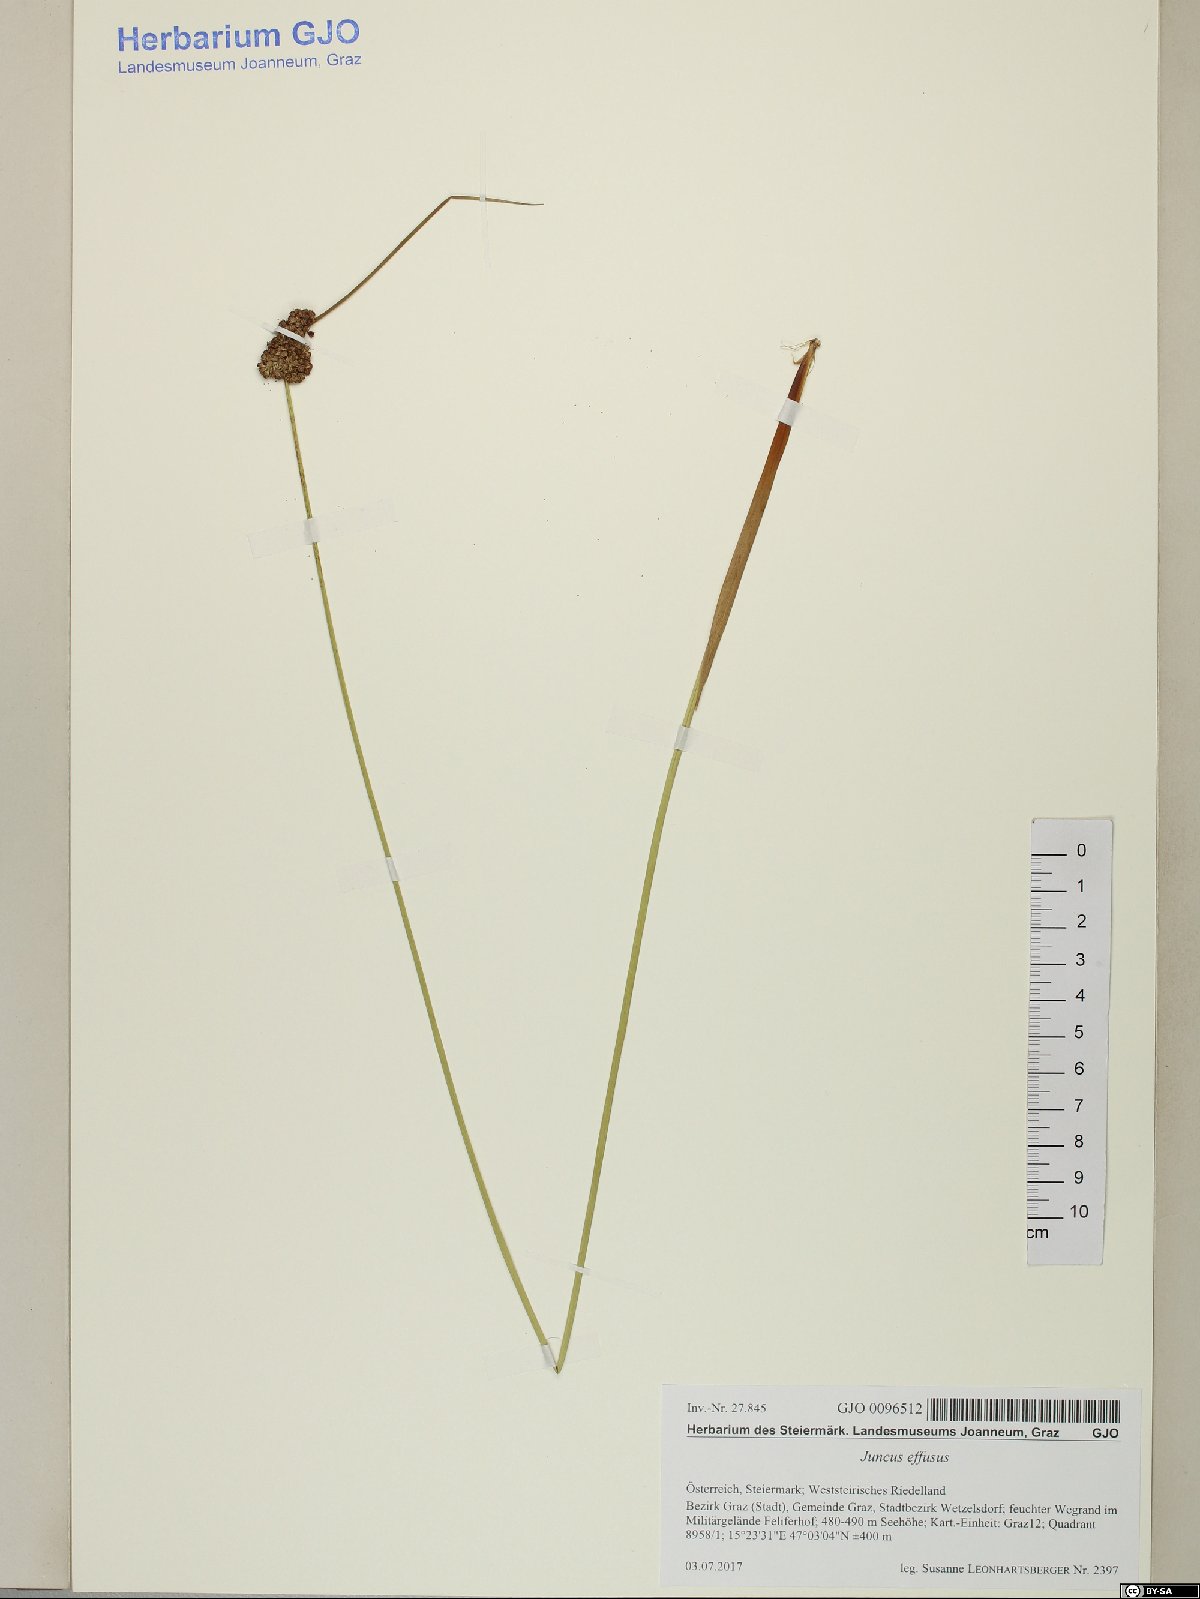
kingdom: Plantae
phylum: Tracheophyta
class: Liliopsida
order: Poales
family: Juncaceae
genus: Juncus
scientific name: Juncus effusus
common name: Soft rush
